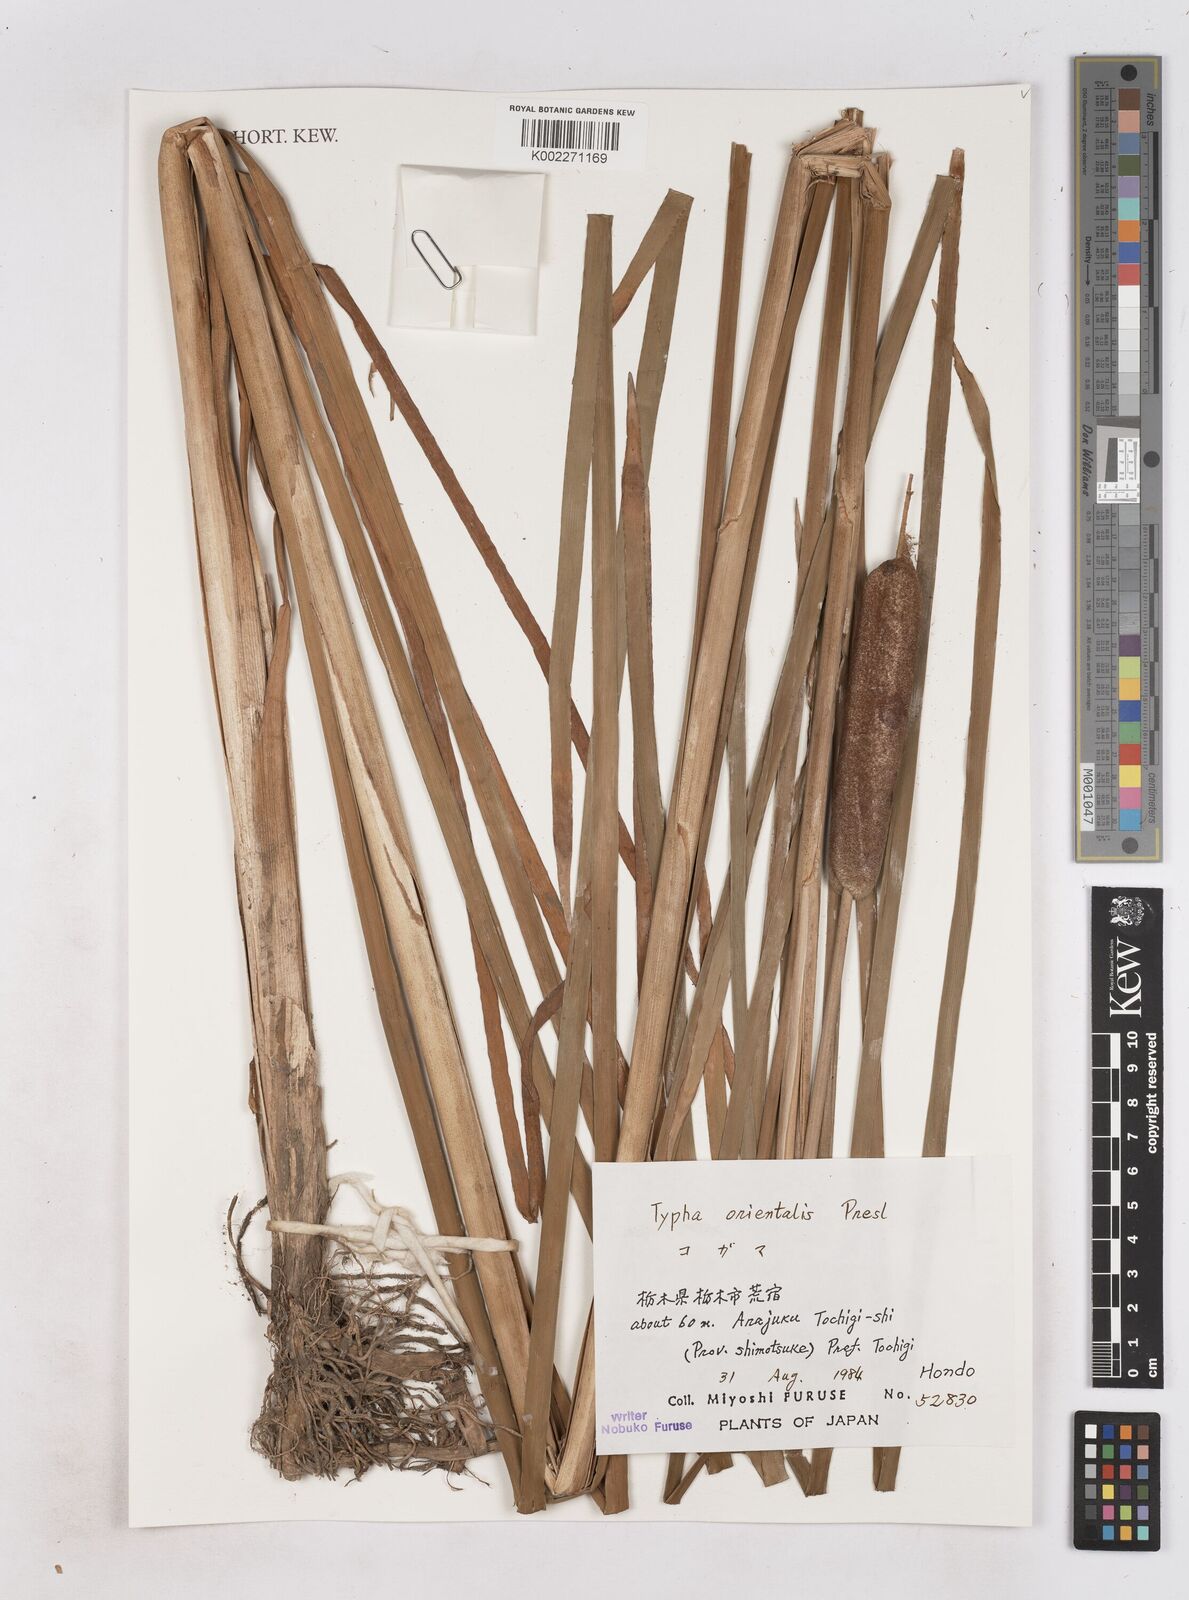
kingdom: Plantae
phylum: Tracheophyta
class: Liliopsida
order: Poales
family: Typhaceae
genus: Typha
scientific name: Typha orientalis
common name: Bullrush
